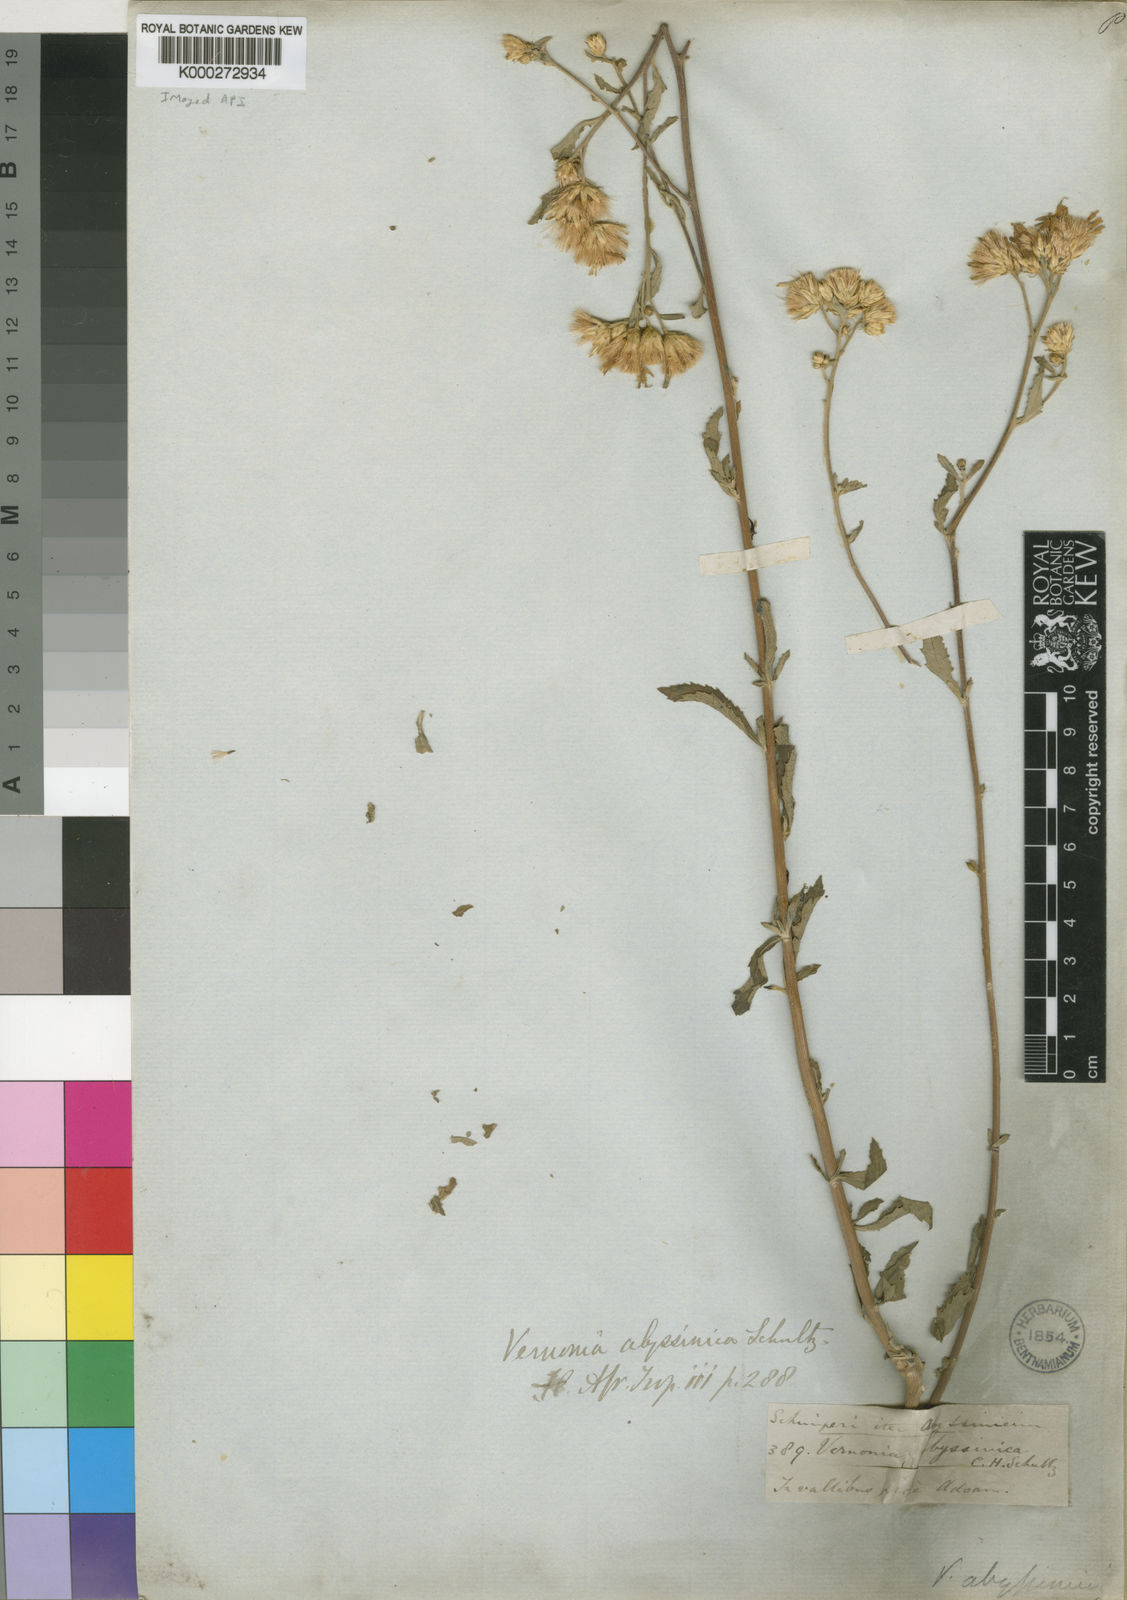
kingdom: Plantae
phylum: Tracheophyta
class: Magnoliopsida
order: Asterales
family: Asteraceae
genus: Nothovernonia
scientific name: Nothovernonia purpurea
